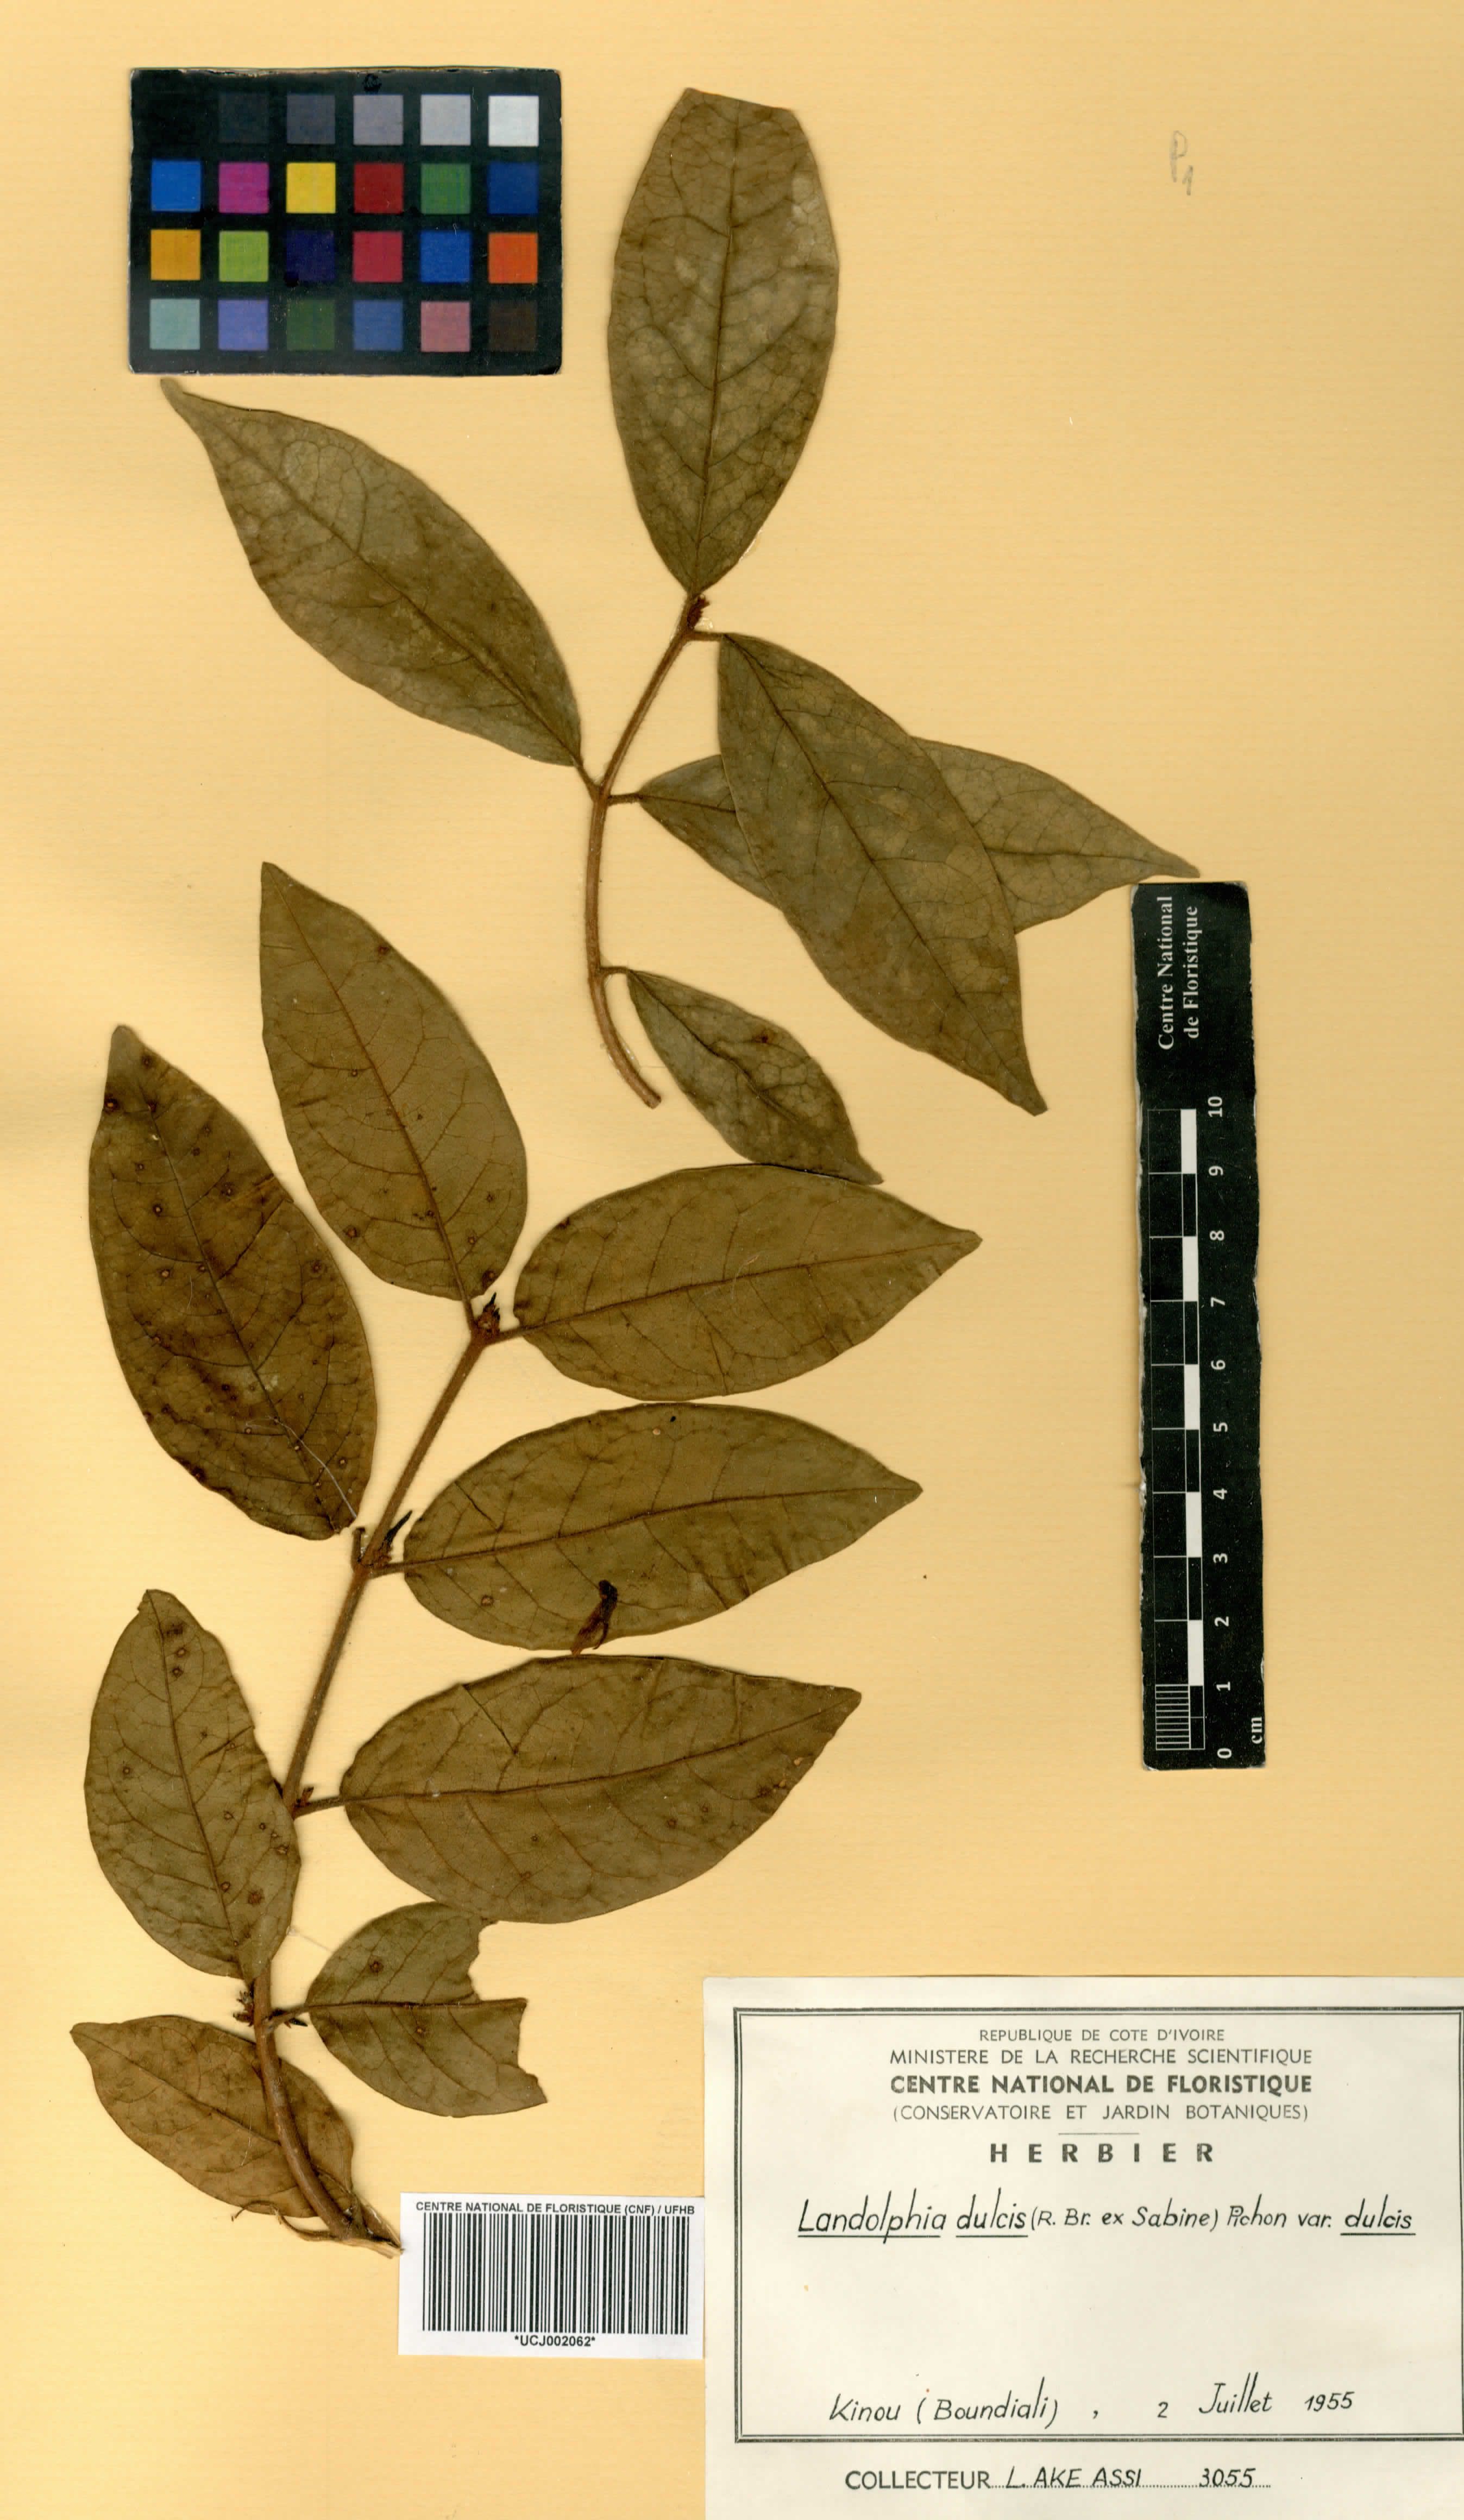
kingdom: Plantae
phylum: Tracheophyta
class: Magnoliopsida
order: Gentianales
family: Apocynaceae
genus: Landolphia
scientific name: Landolphia dulcis
